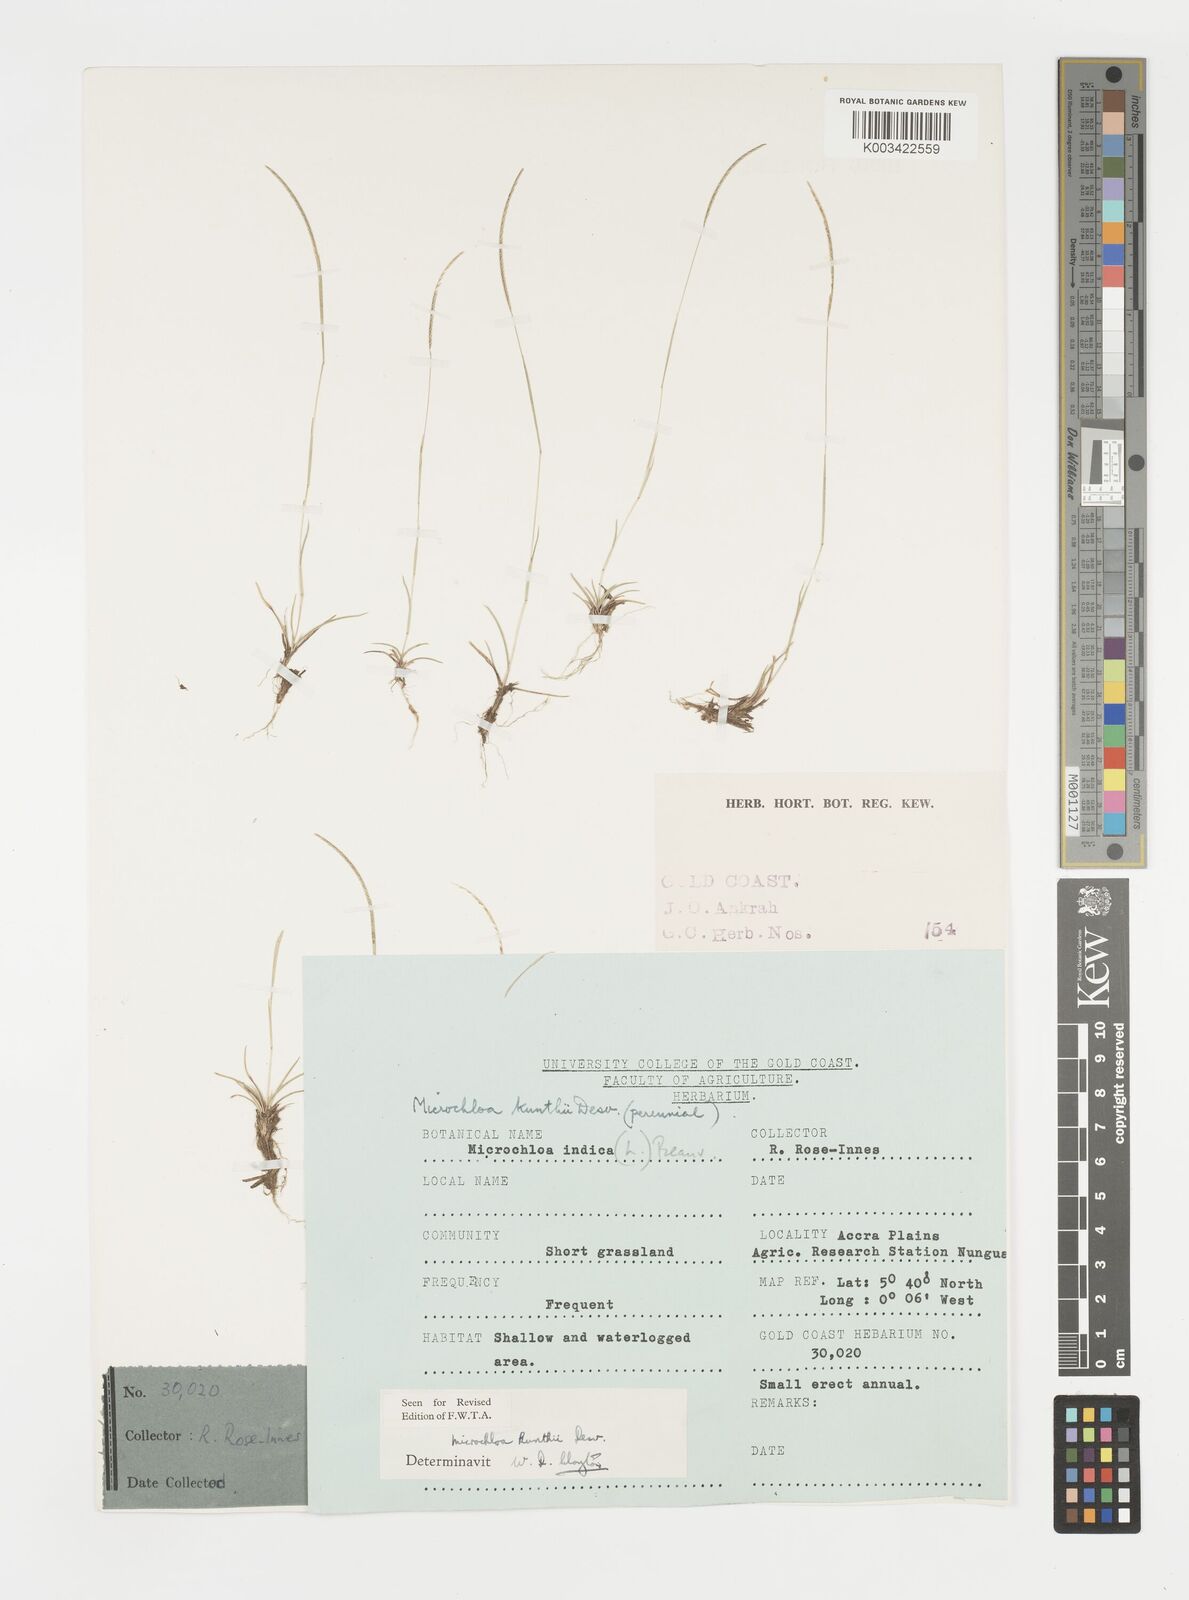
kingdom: Plantae
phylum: Tracheophyta
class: Liliopsida
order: Poales
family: Poaceae
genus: Microchloa
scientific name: Microchloa kunthii
